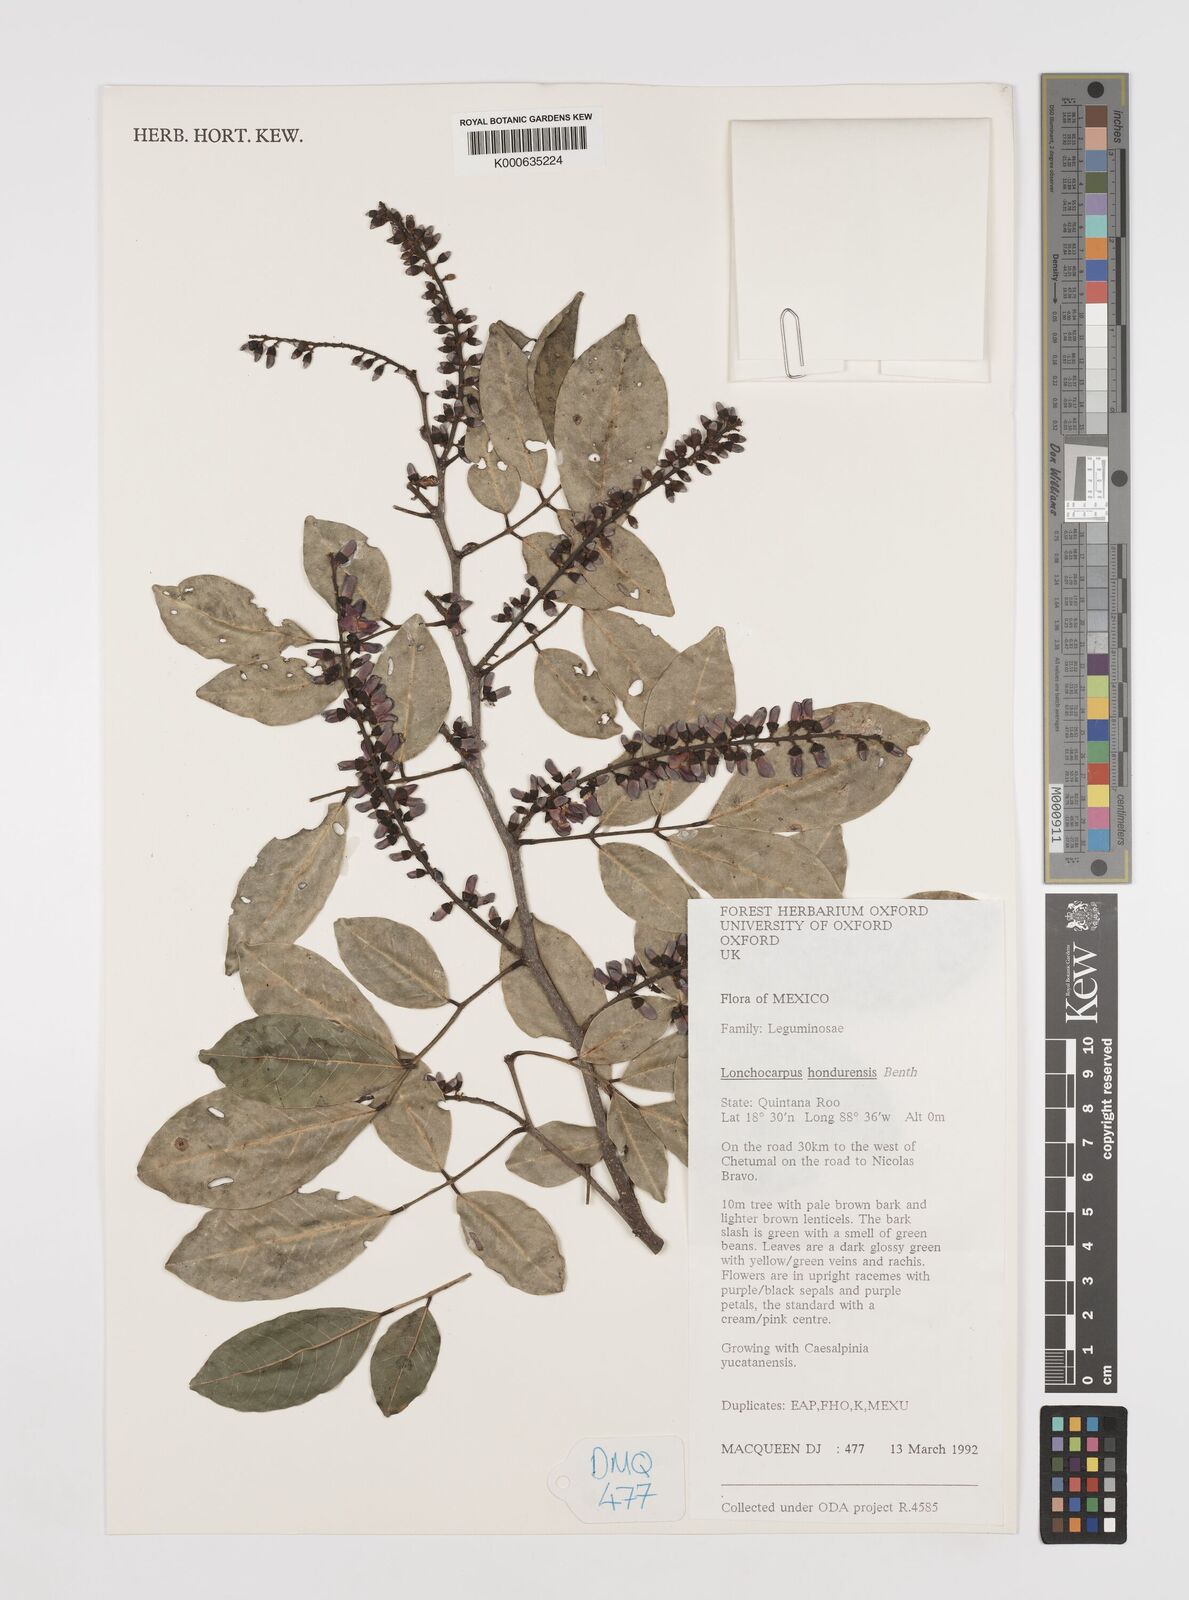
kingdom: Plantae
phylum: Tracheophyta
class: Magnoliopsida
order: Fabales
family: Fabaceae
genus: Lonchocarpus
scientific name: Lonchocarpus hondurensis
